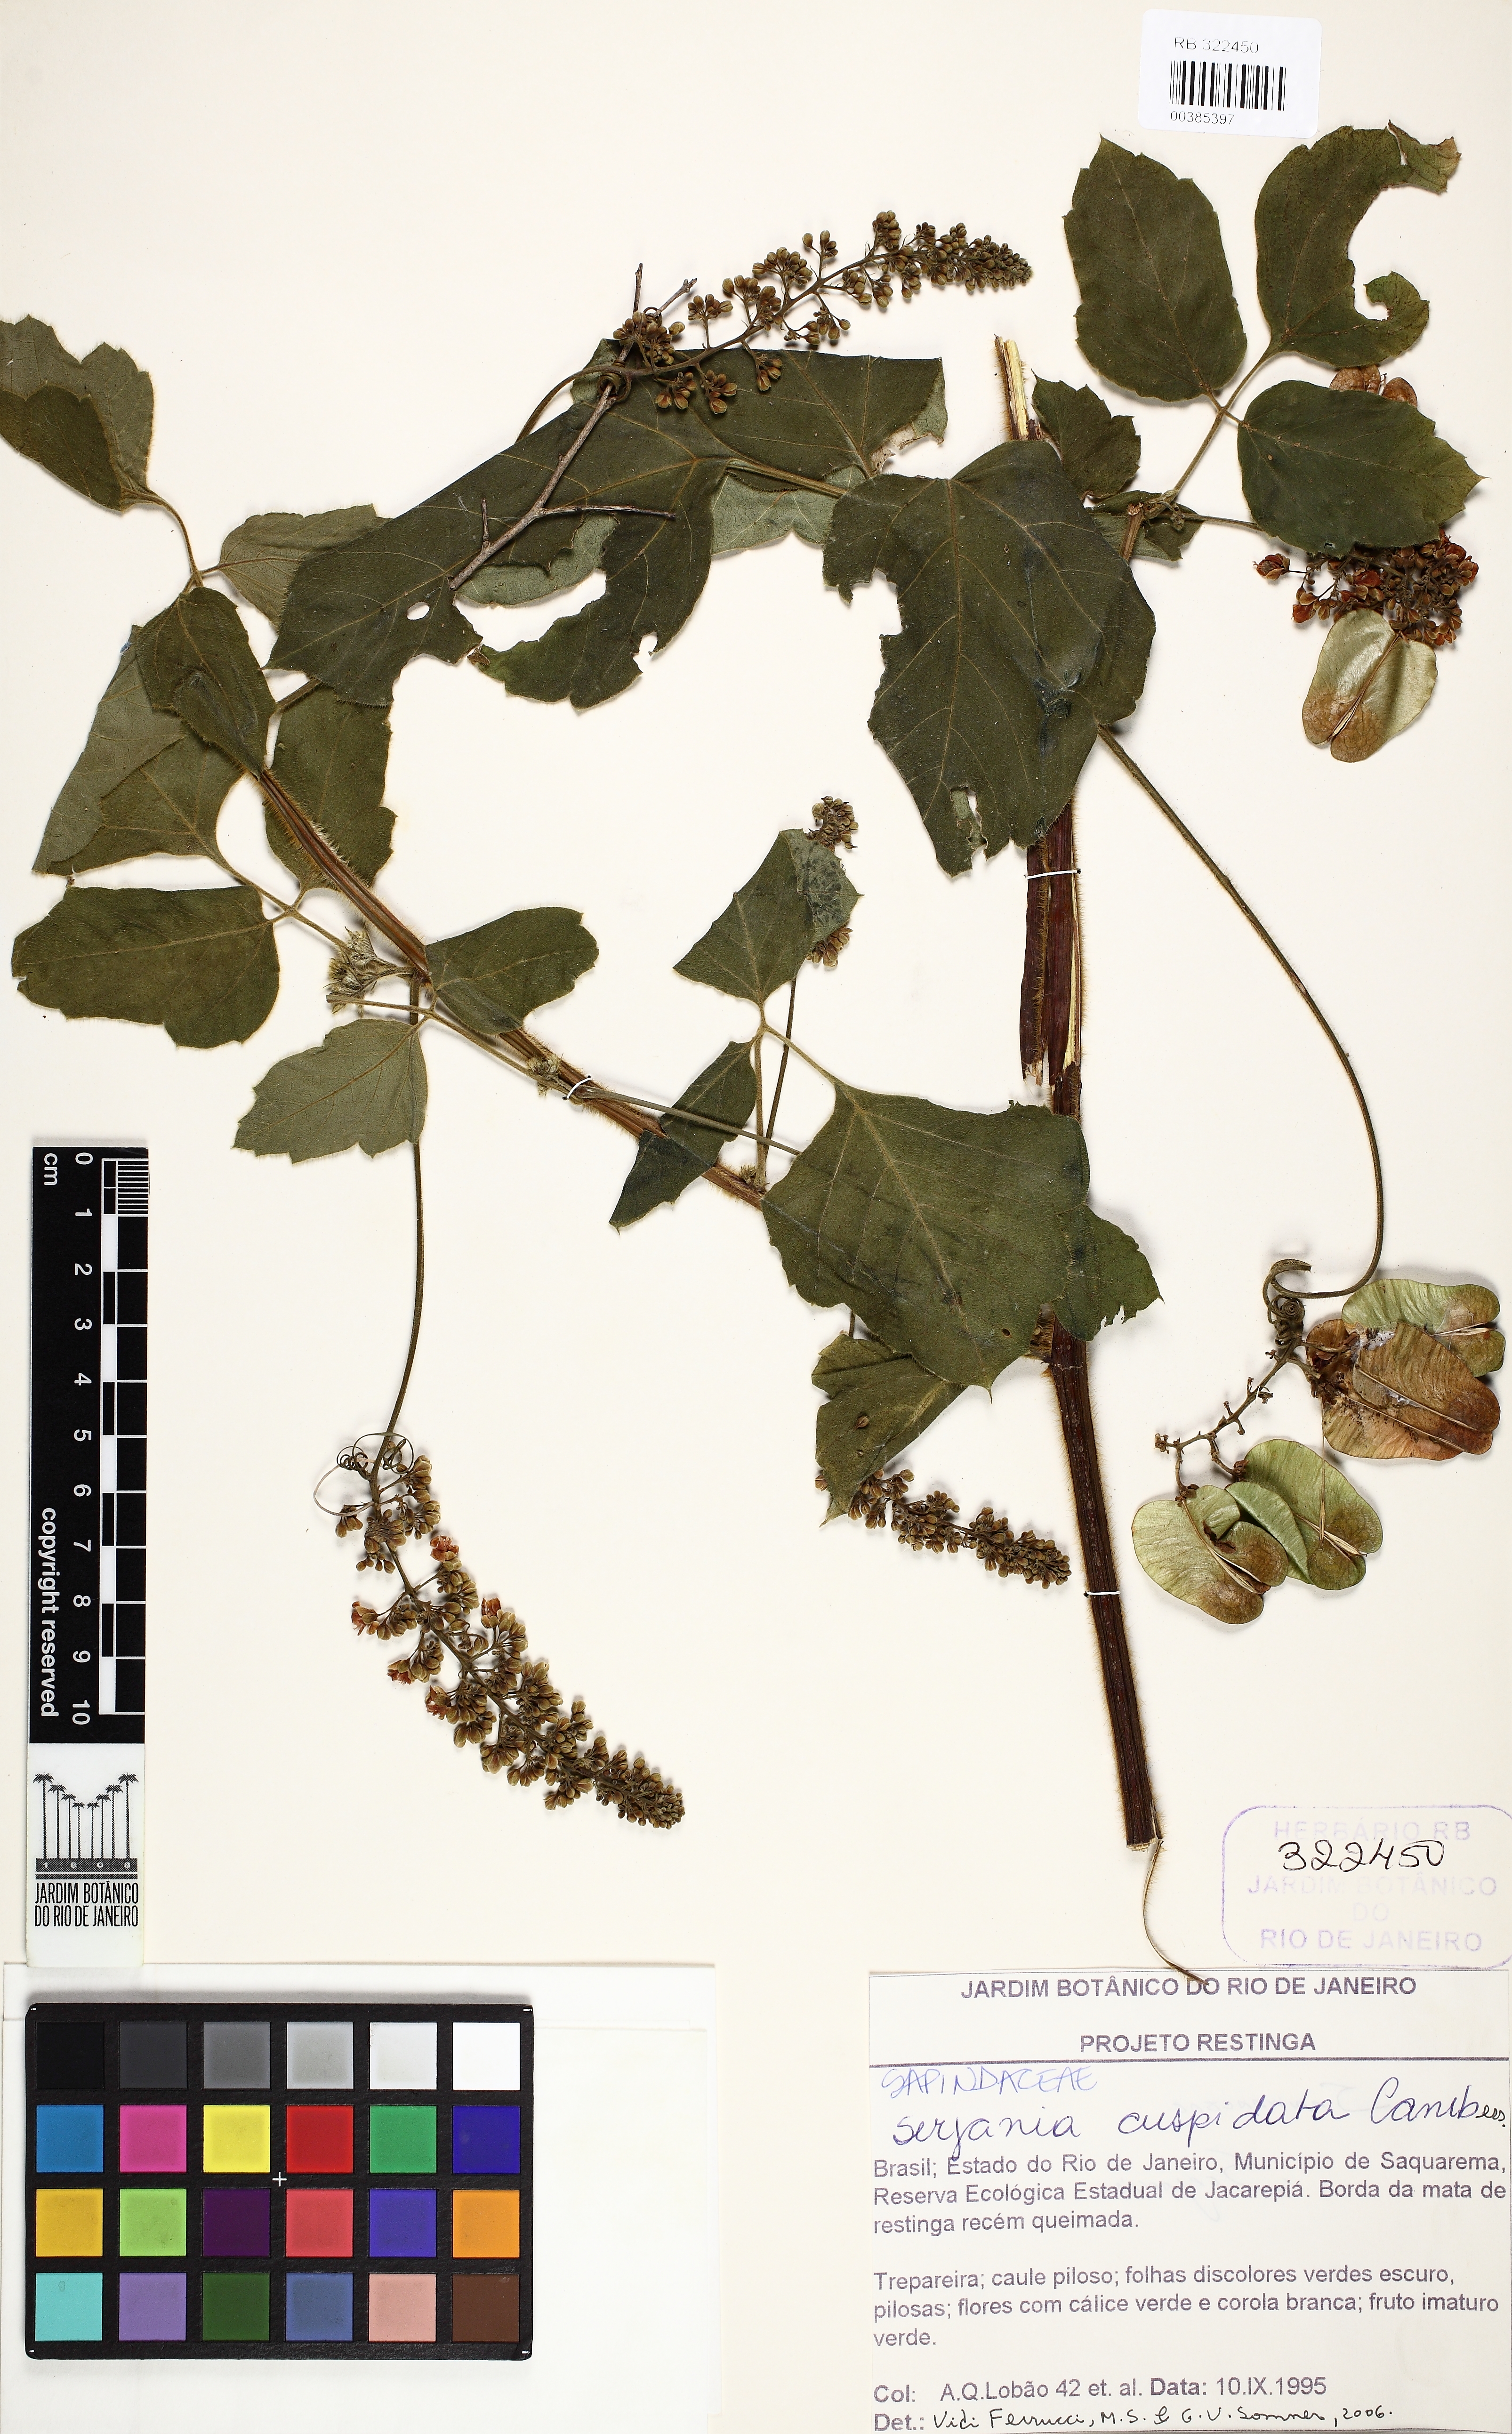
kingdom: Plantae
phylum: Tracheophyta
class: Magnoliopsida
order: Sapindales
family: Sapindaceae
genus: Serjania
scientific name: Serjania ferruginea
